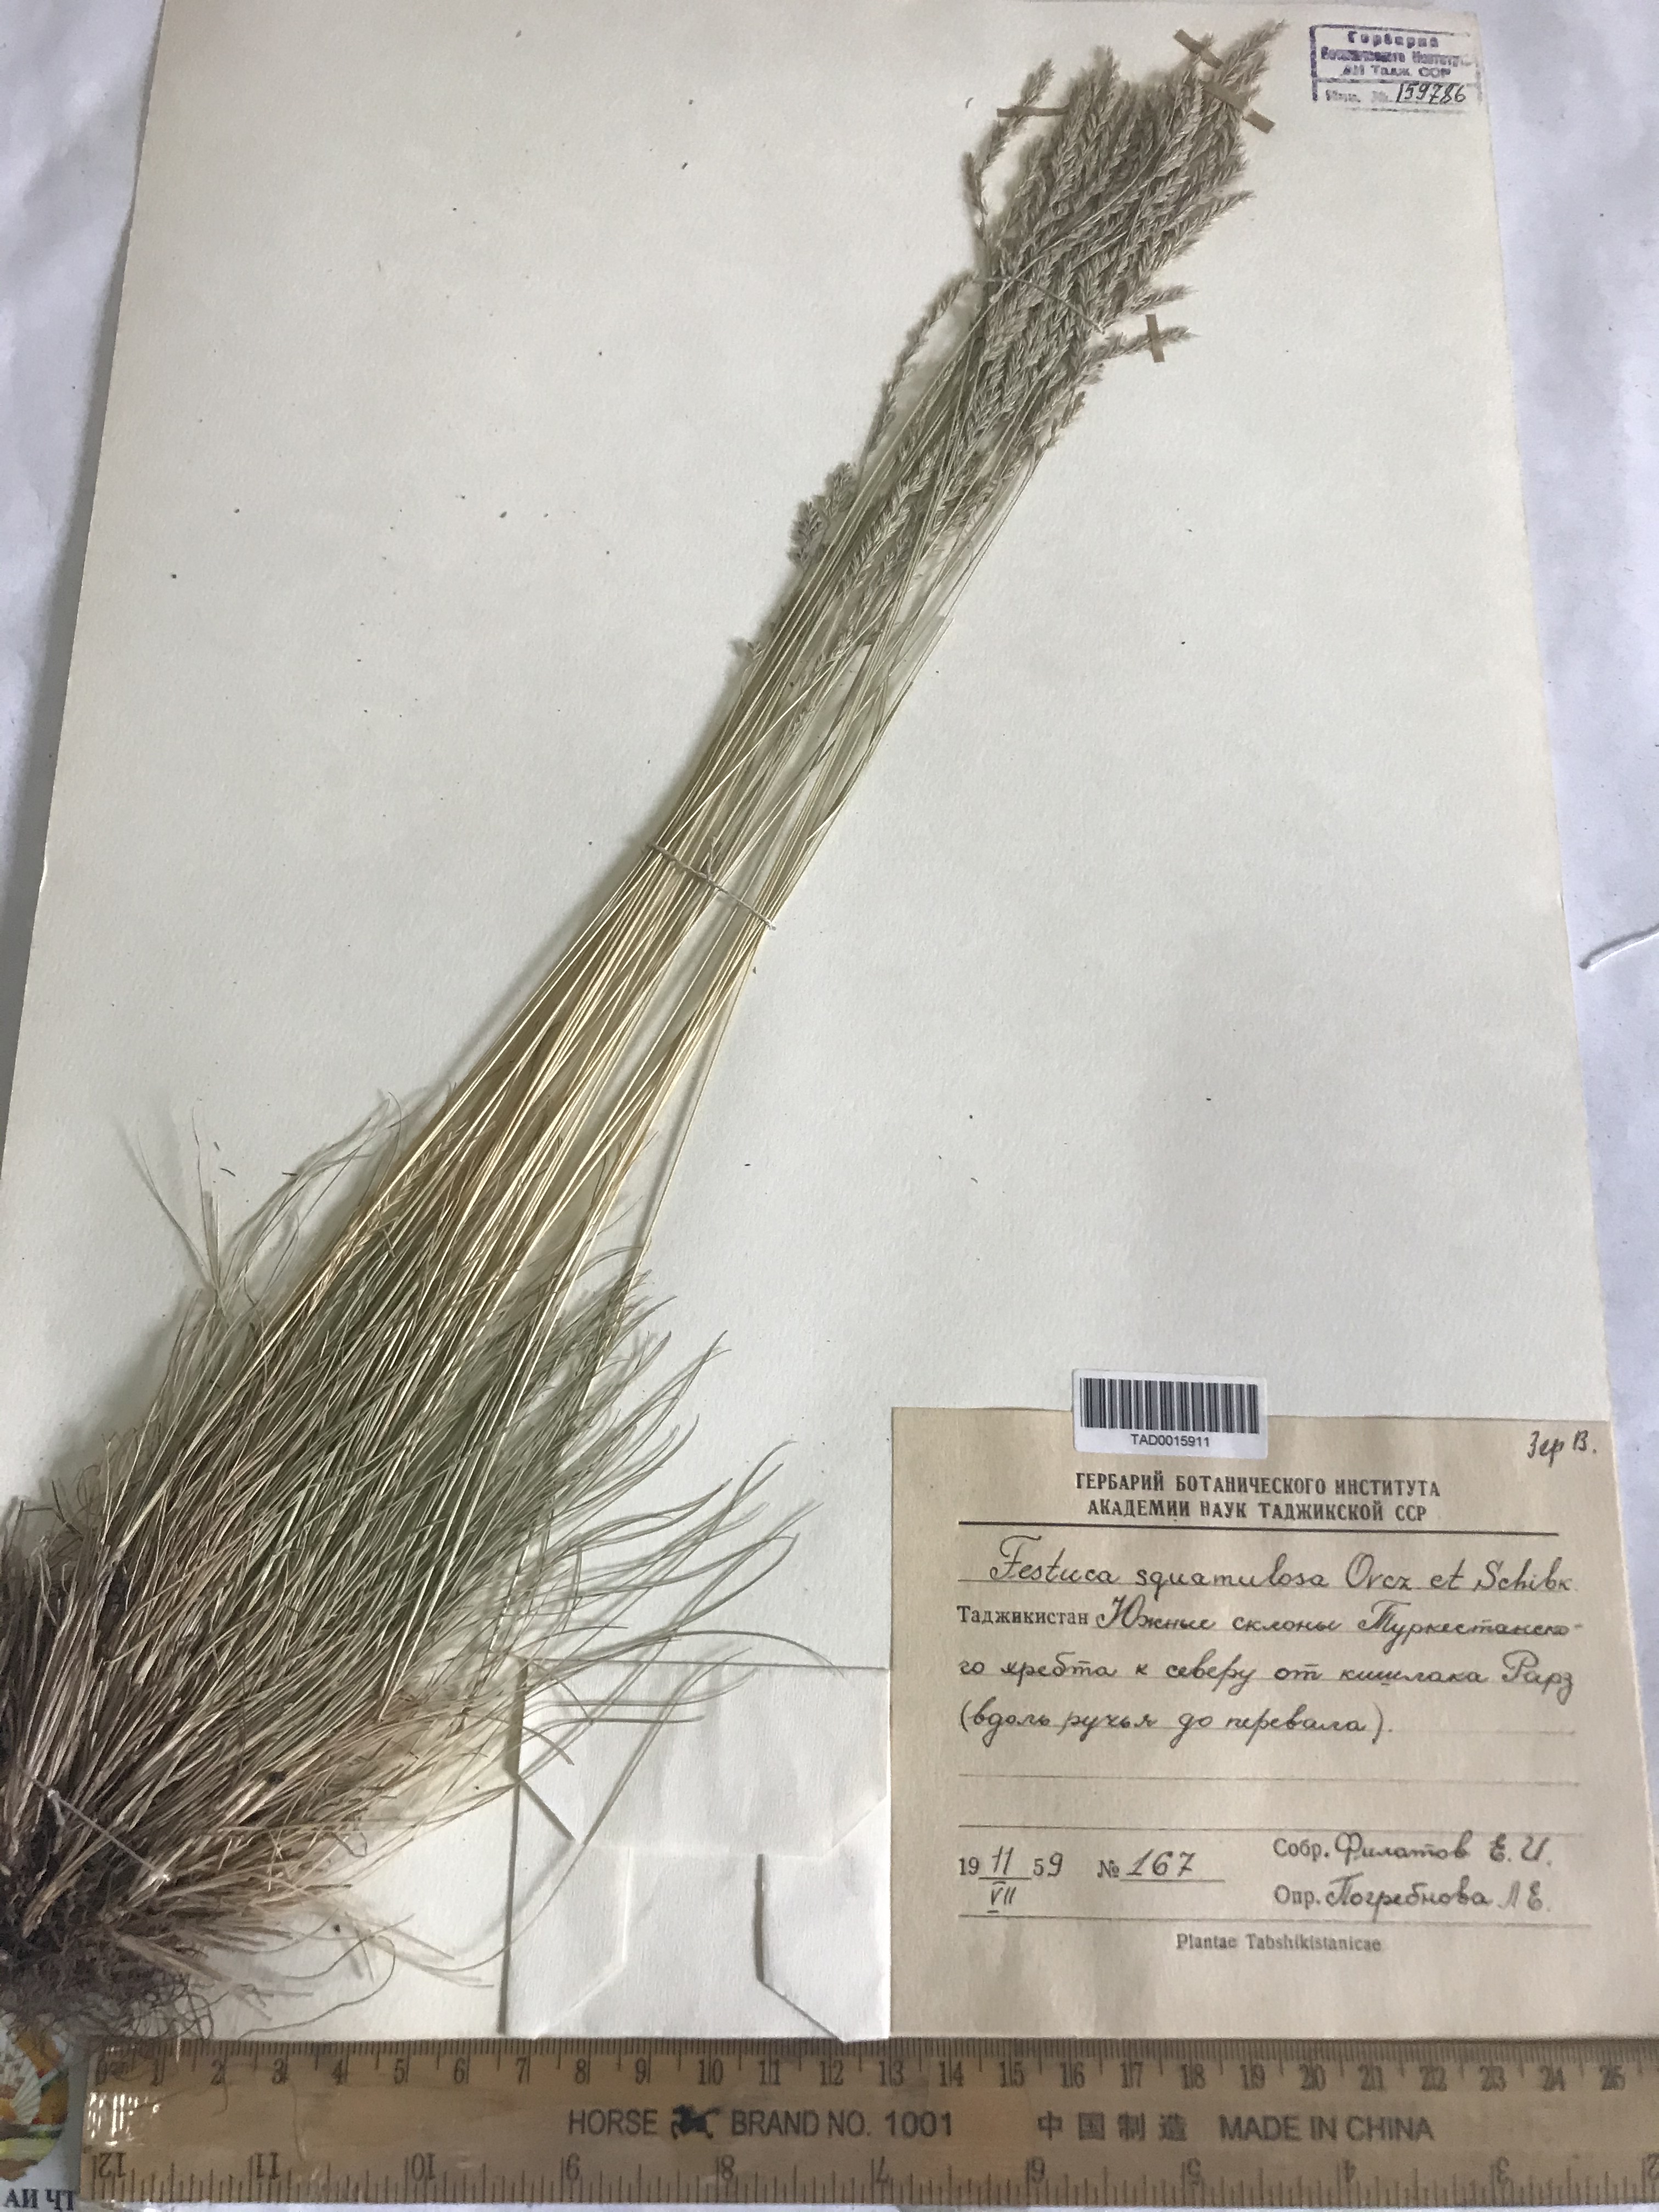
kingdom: Plantae
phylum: Tracheophyta
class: Liliopsida
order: Poales
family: Poaceae
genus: Festuca
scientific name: Festuca valesiaca
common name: Volga fescue
